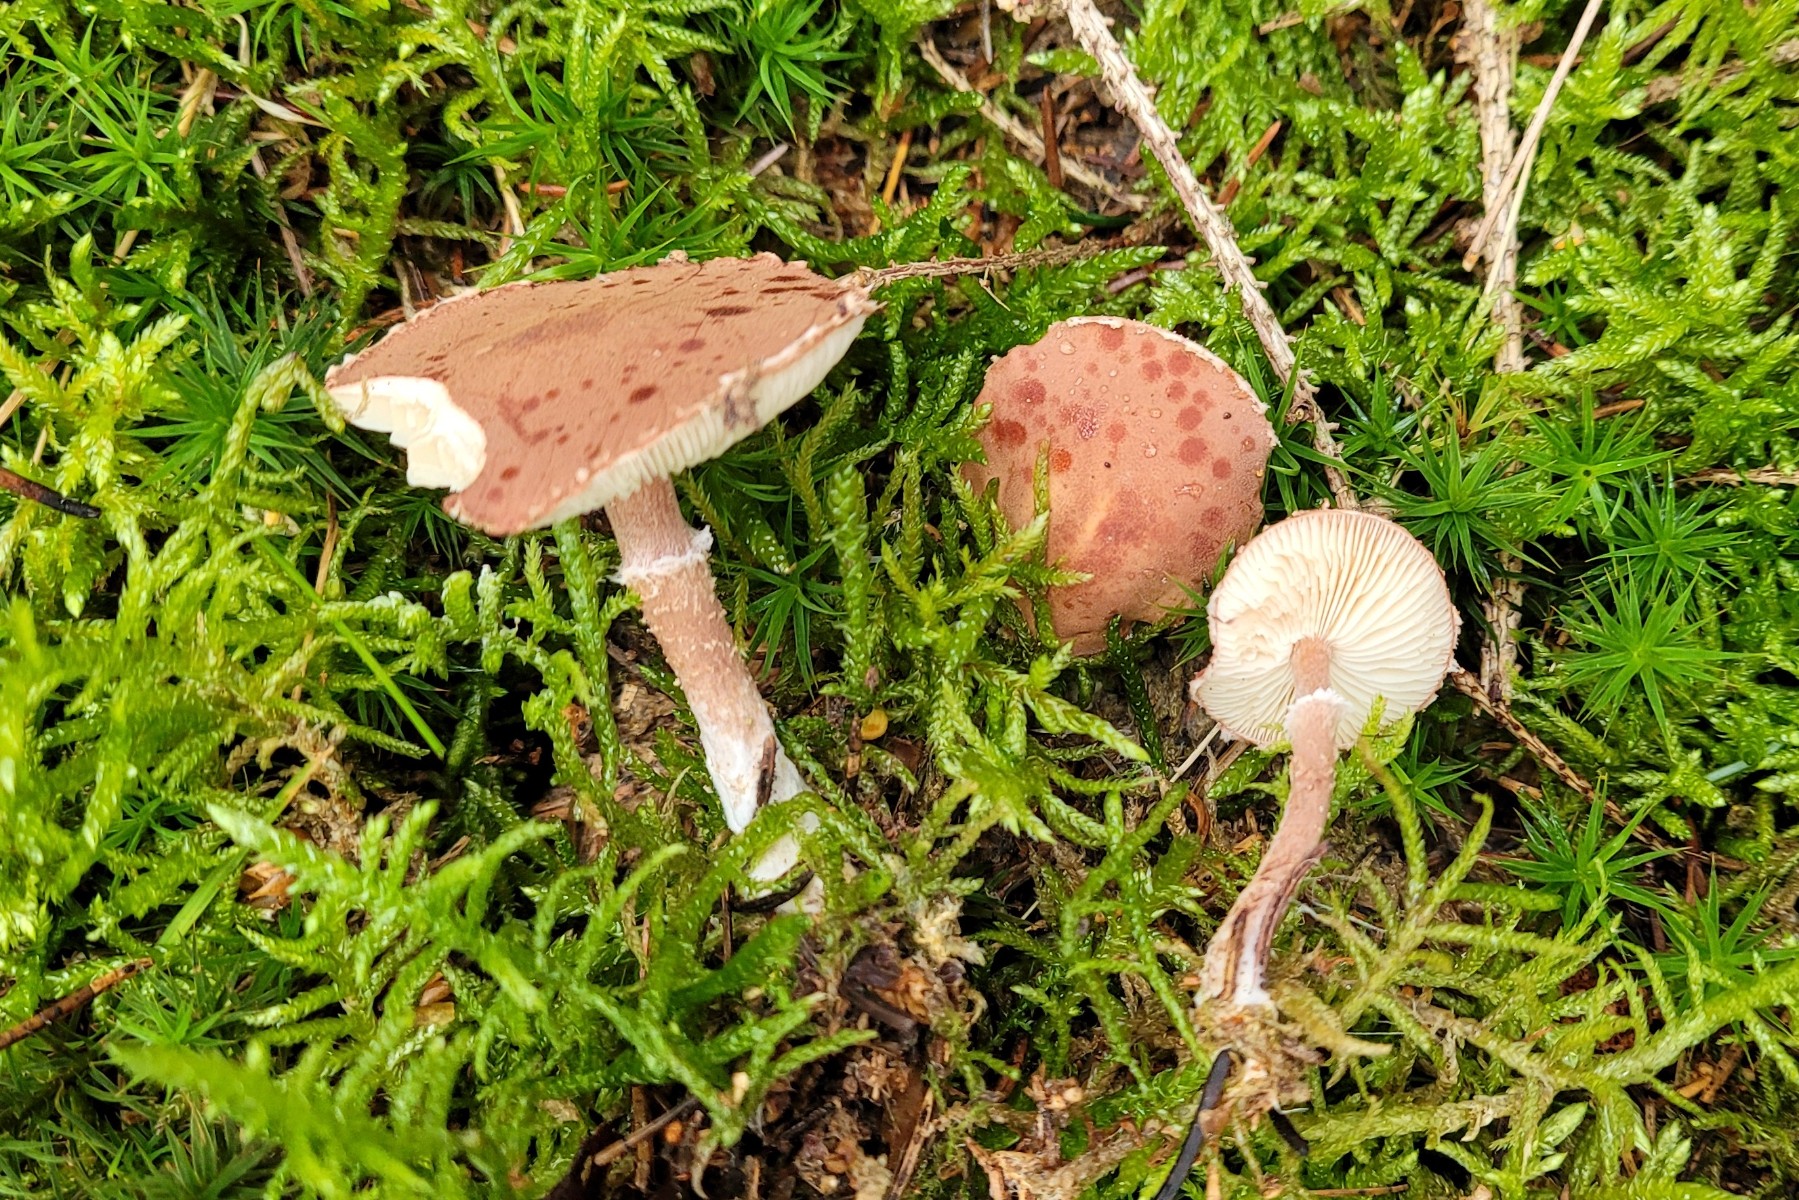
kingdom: Fungi
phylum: Basidiomycota
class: Agaricomycetes
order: Agaricales
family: Agaricaceae
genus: Cystodermella
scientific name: Cystodermella granulosa
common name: kliddet grynhat
